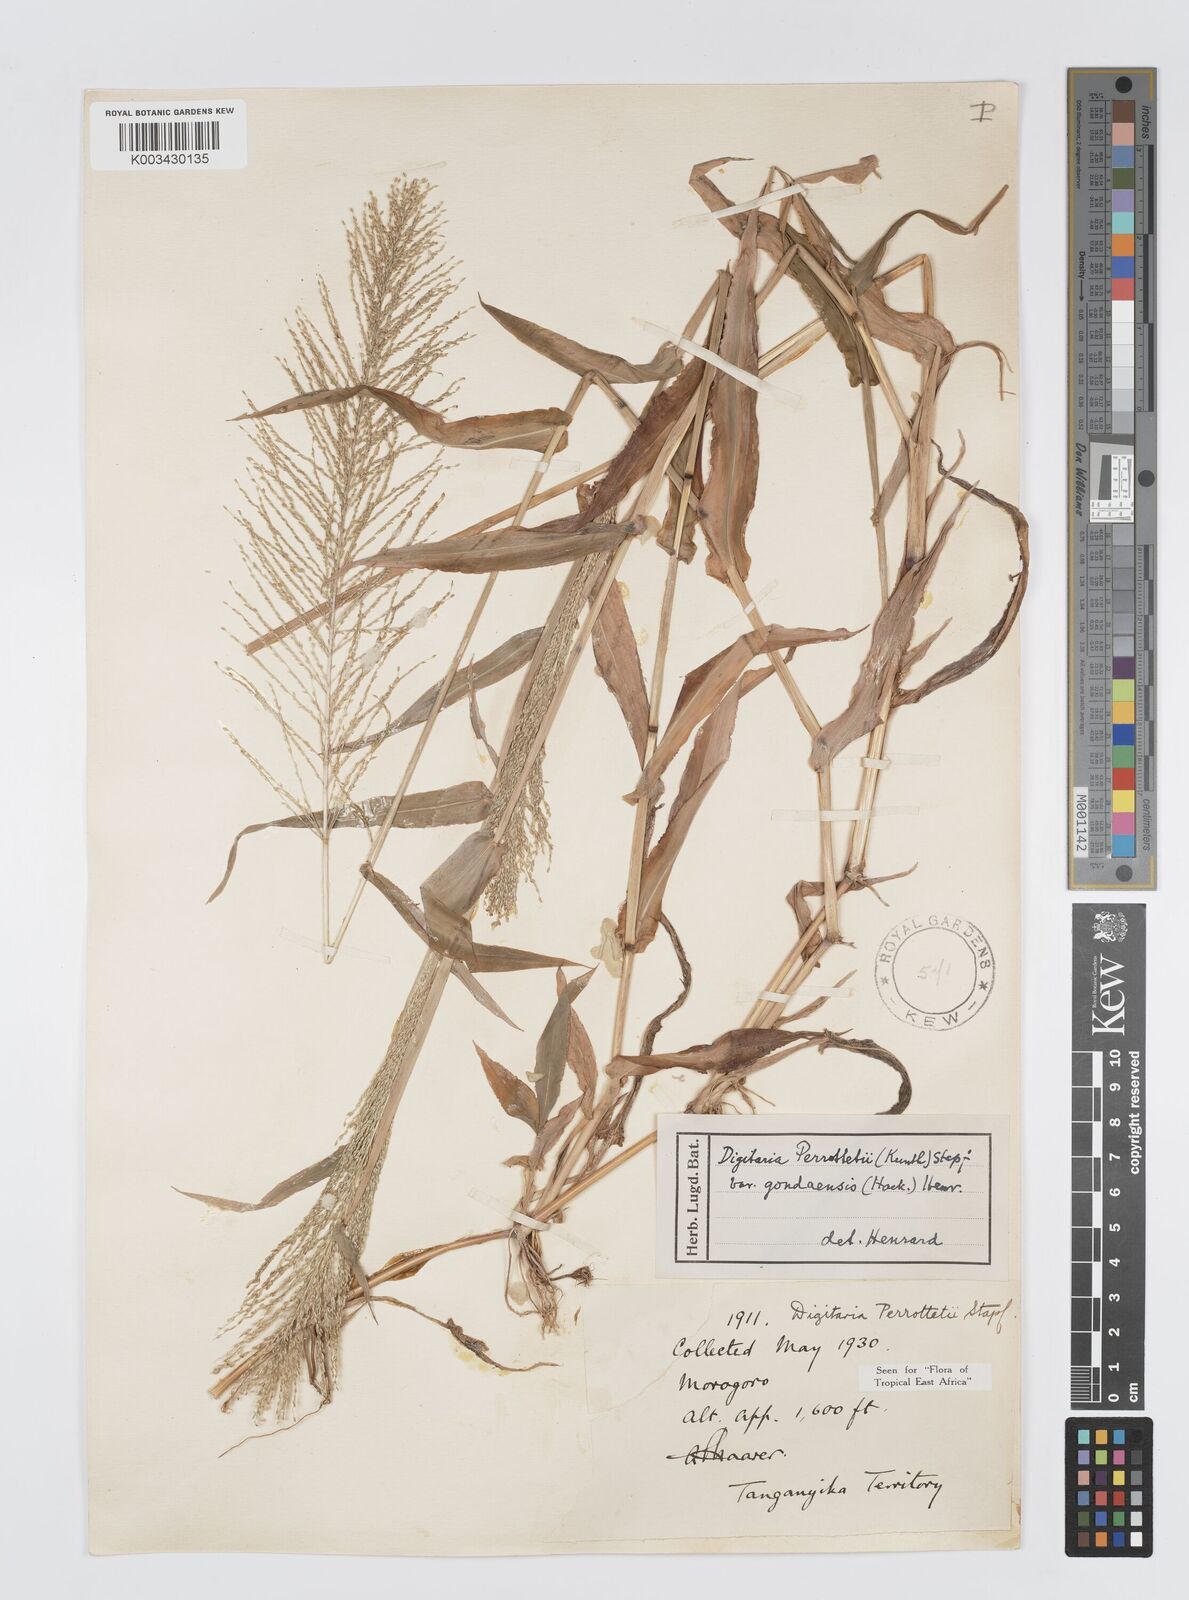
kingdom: Plantae
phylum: Tracheophyta
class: Liliopsida
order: Poales
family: Poaceae
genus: Digitaria
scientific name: Digitaria perrottetii
